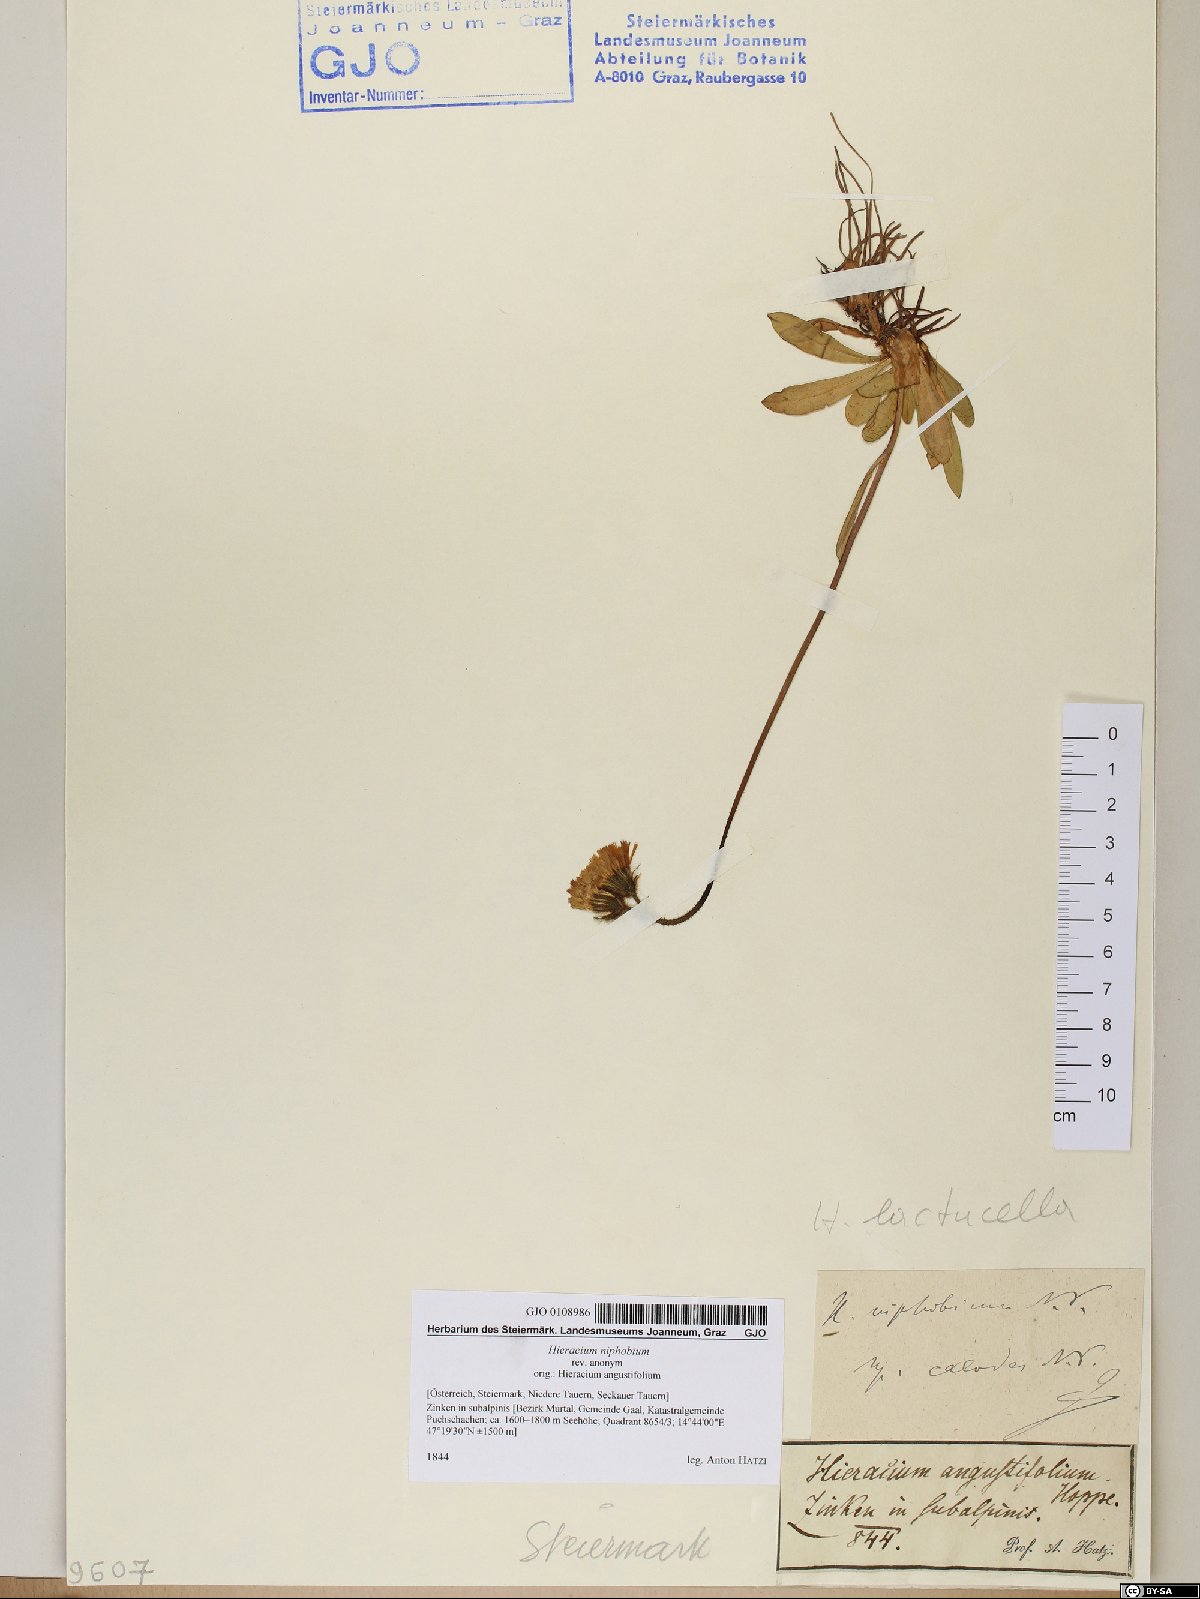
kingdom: Plantae
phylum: Tracheophyta
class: Magnoliopsida
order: Asterales
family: Asteraceae
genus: Pilosella
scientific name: Pilosella corymbuloides
